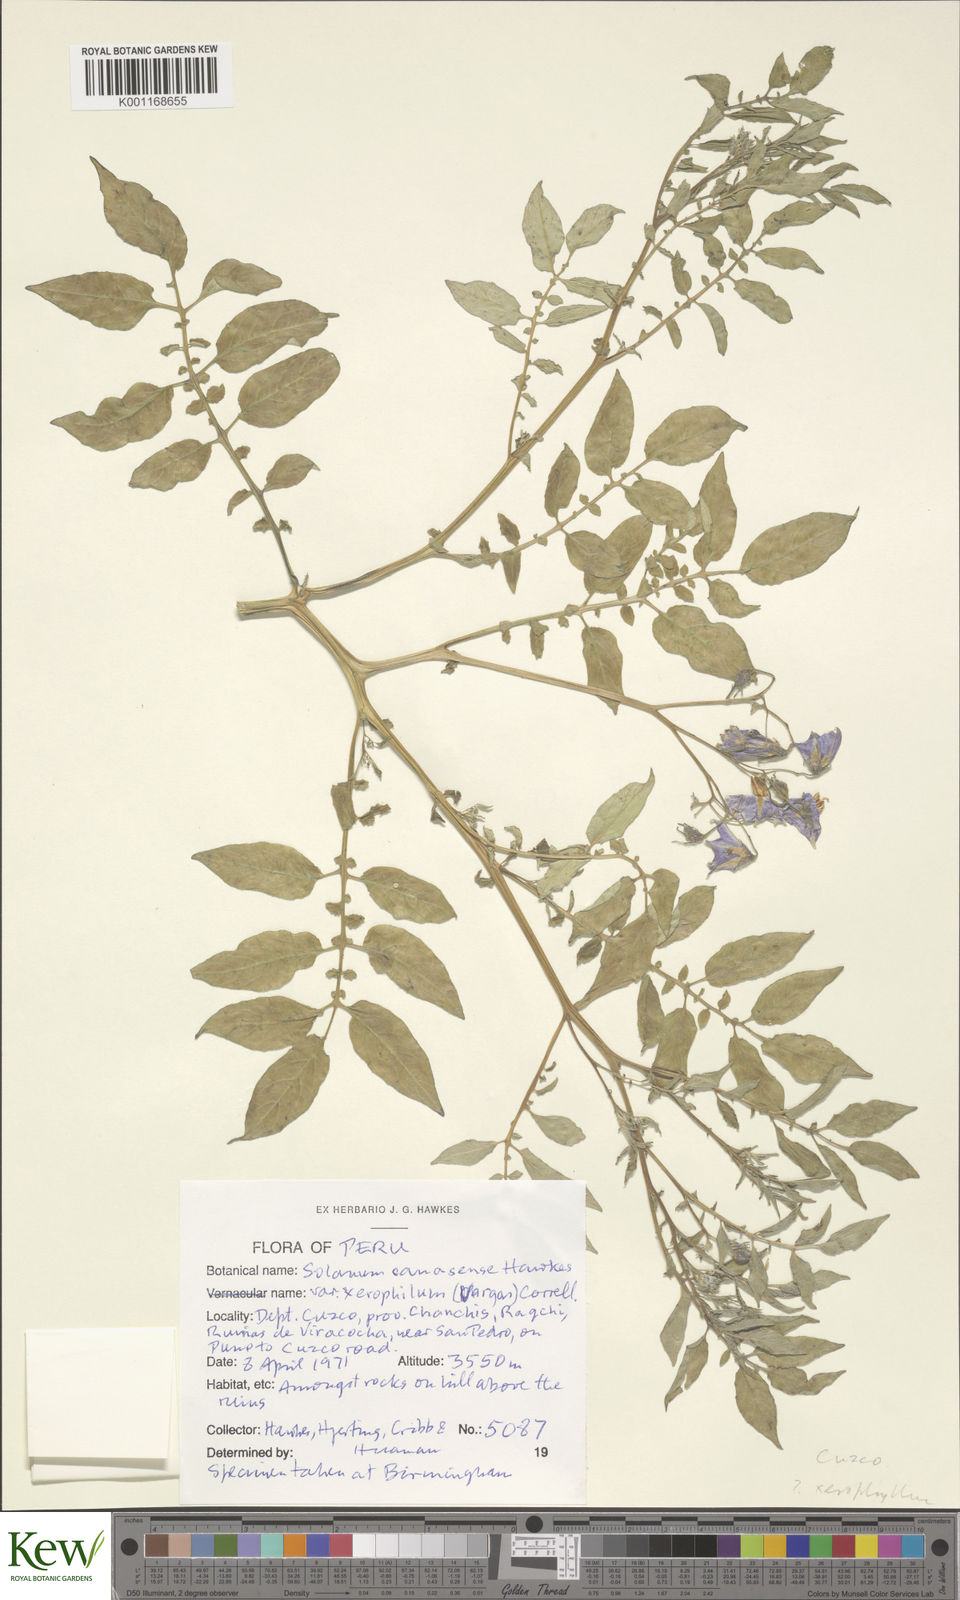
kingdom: Plantae
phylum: Tracheophyta
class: Magnoliopsida
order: Solanales
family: Solanaceae
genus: Solanum
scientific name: Solanum candolleanum
